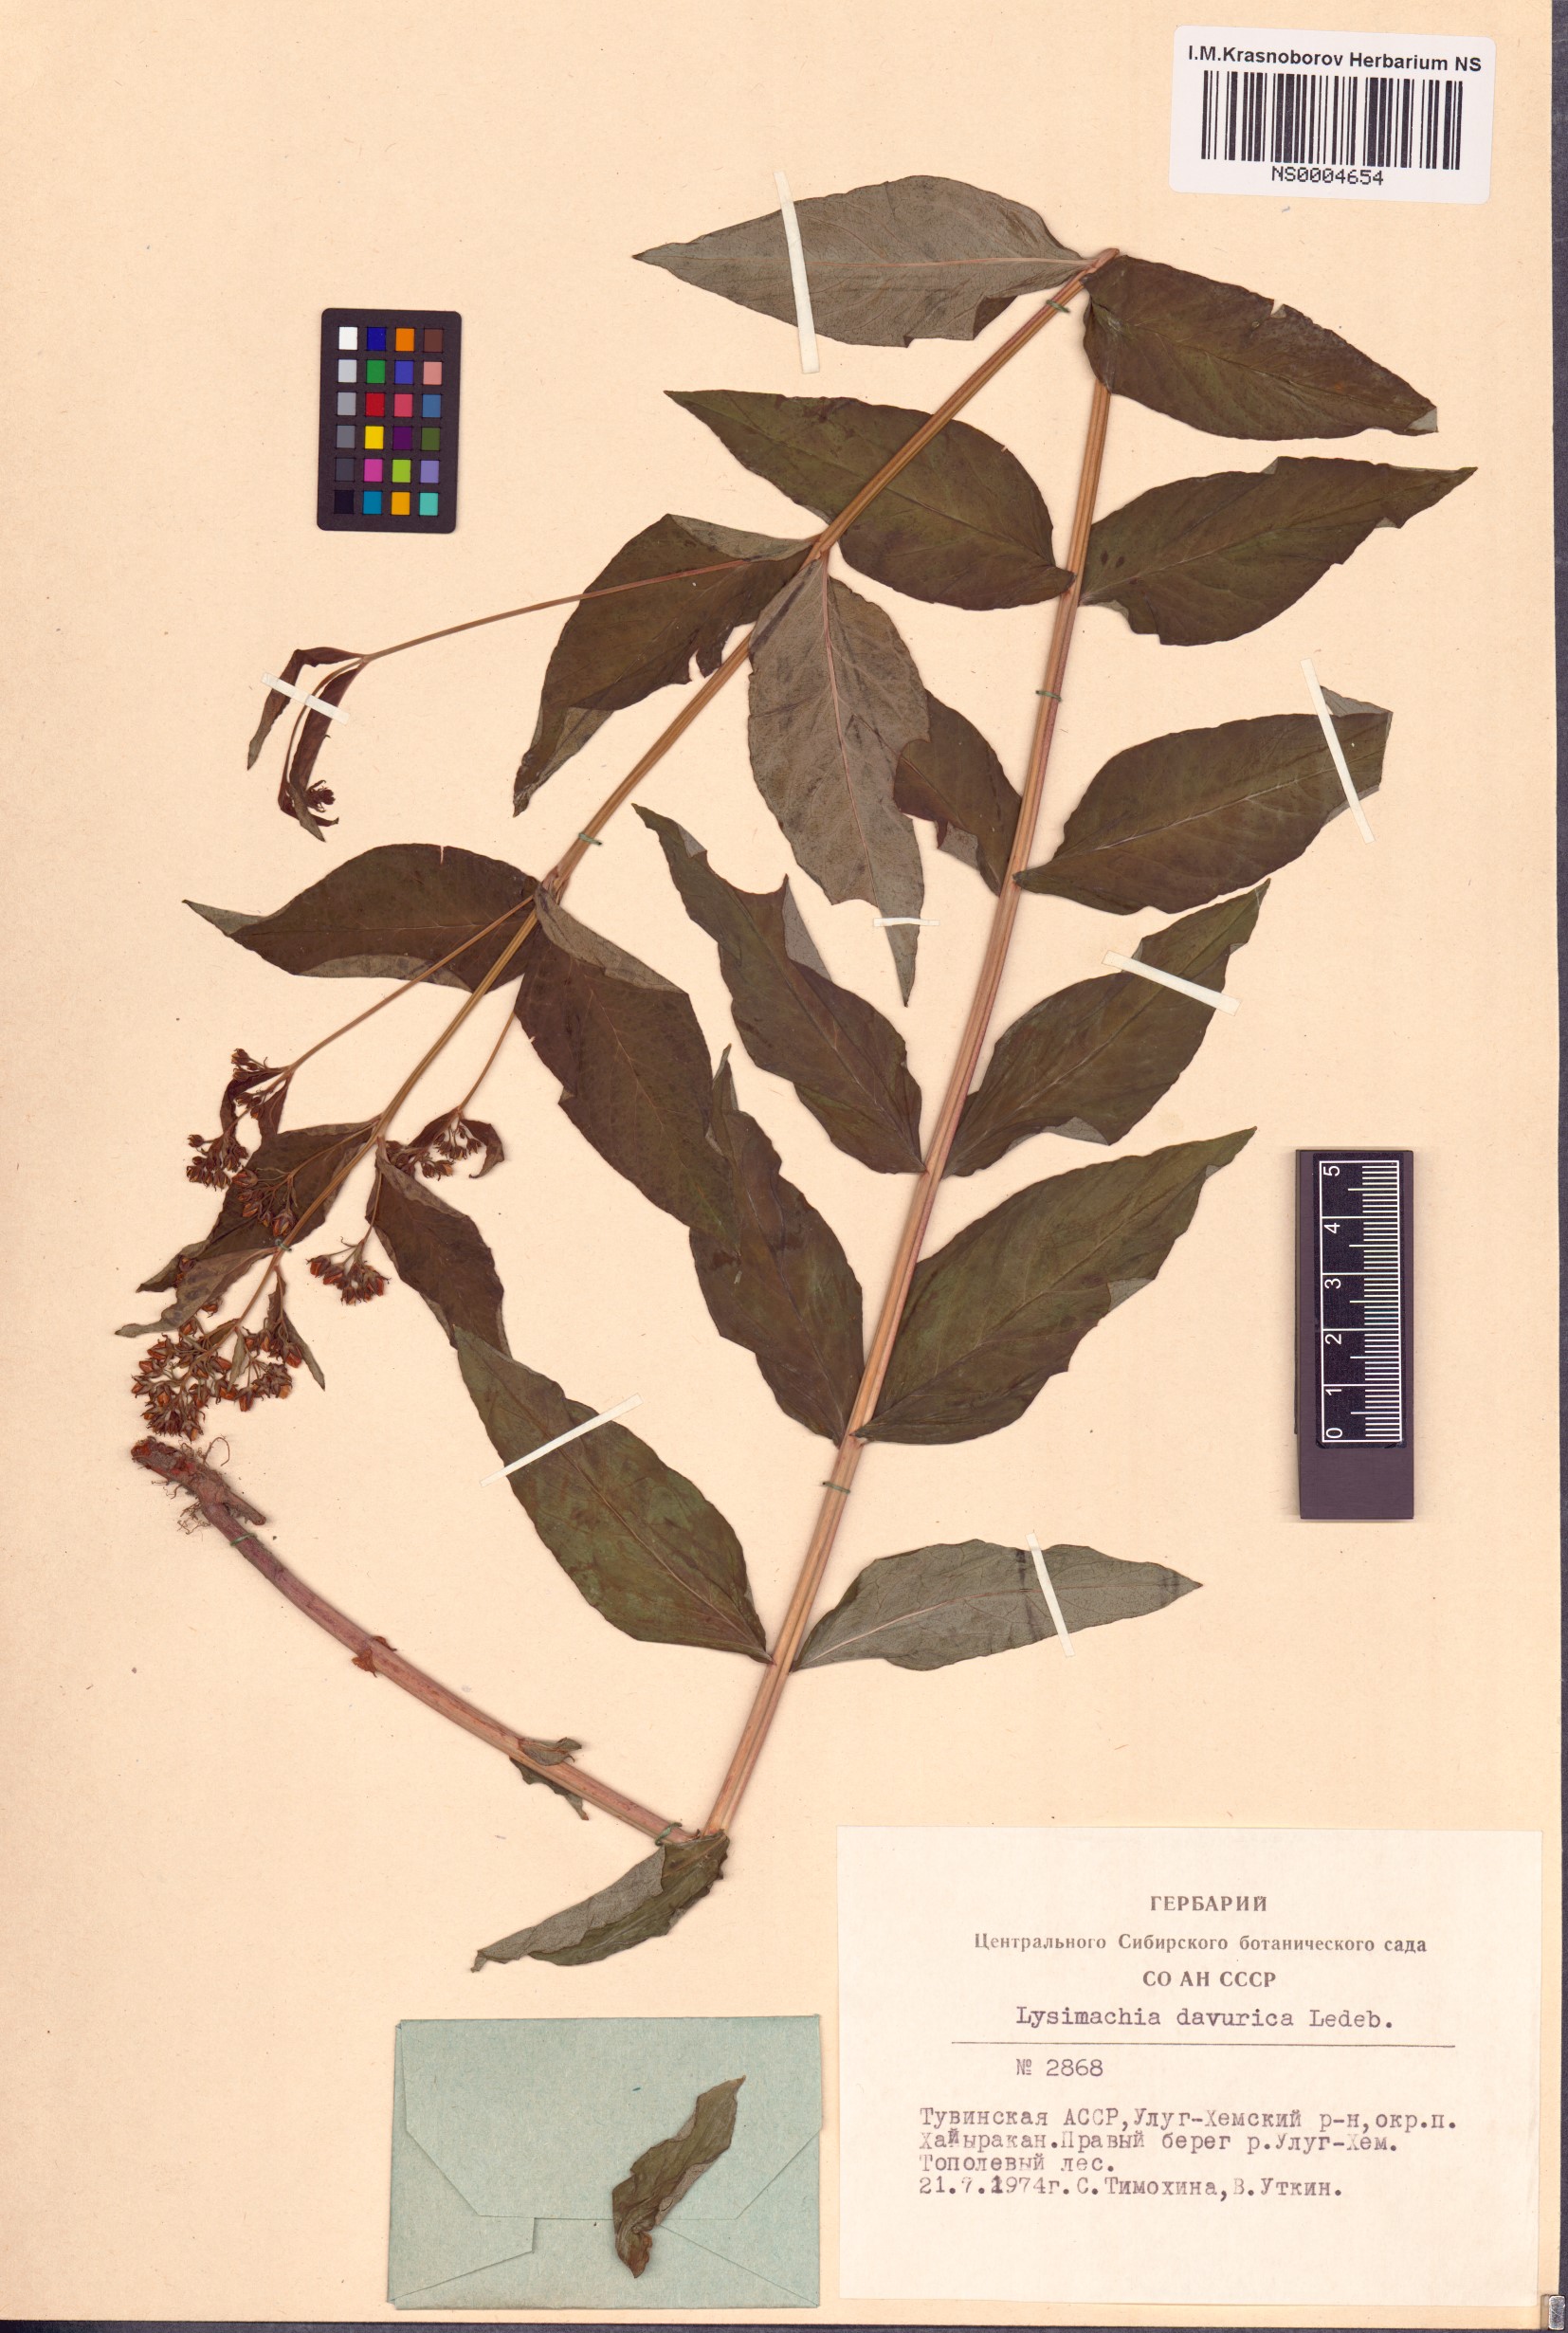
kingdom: Plantae
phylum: Tracheophyta
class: Magnoliopsida
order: Ericales
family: Primulaceae
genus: Lysimachia
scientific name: Lysimachia davurica
